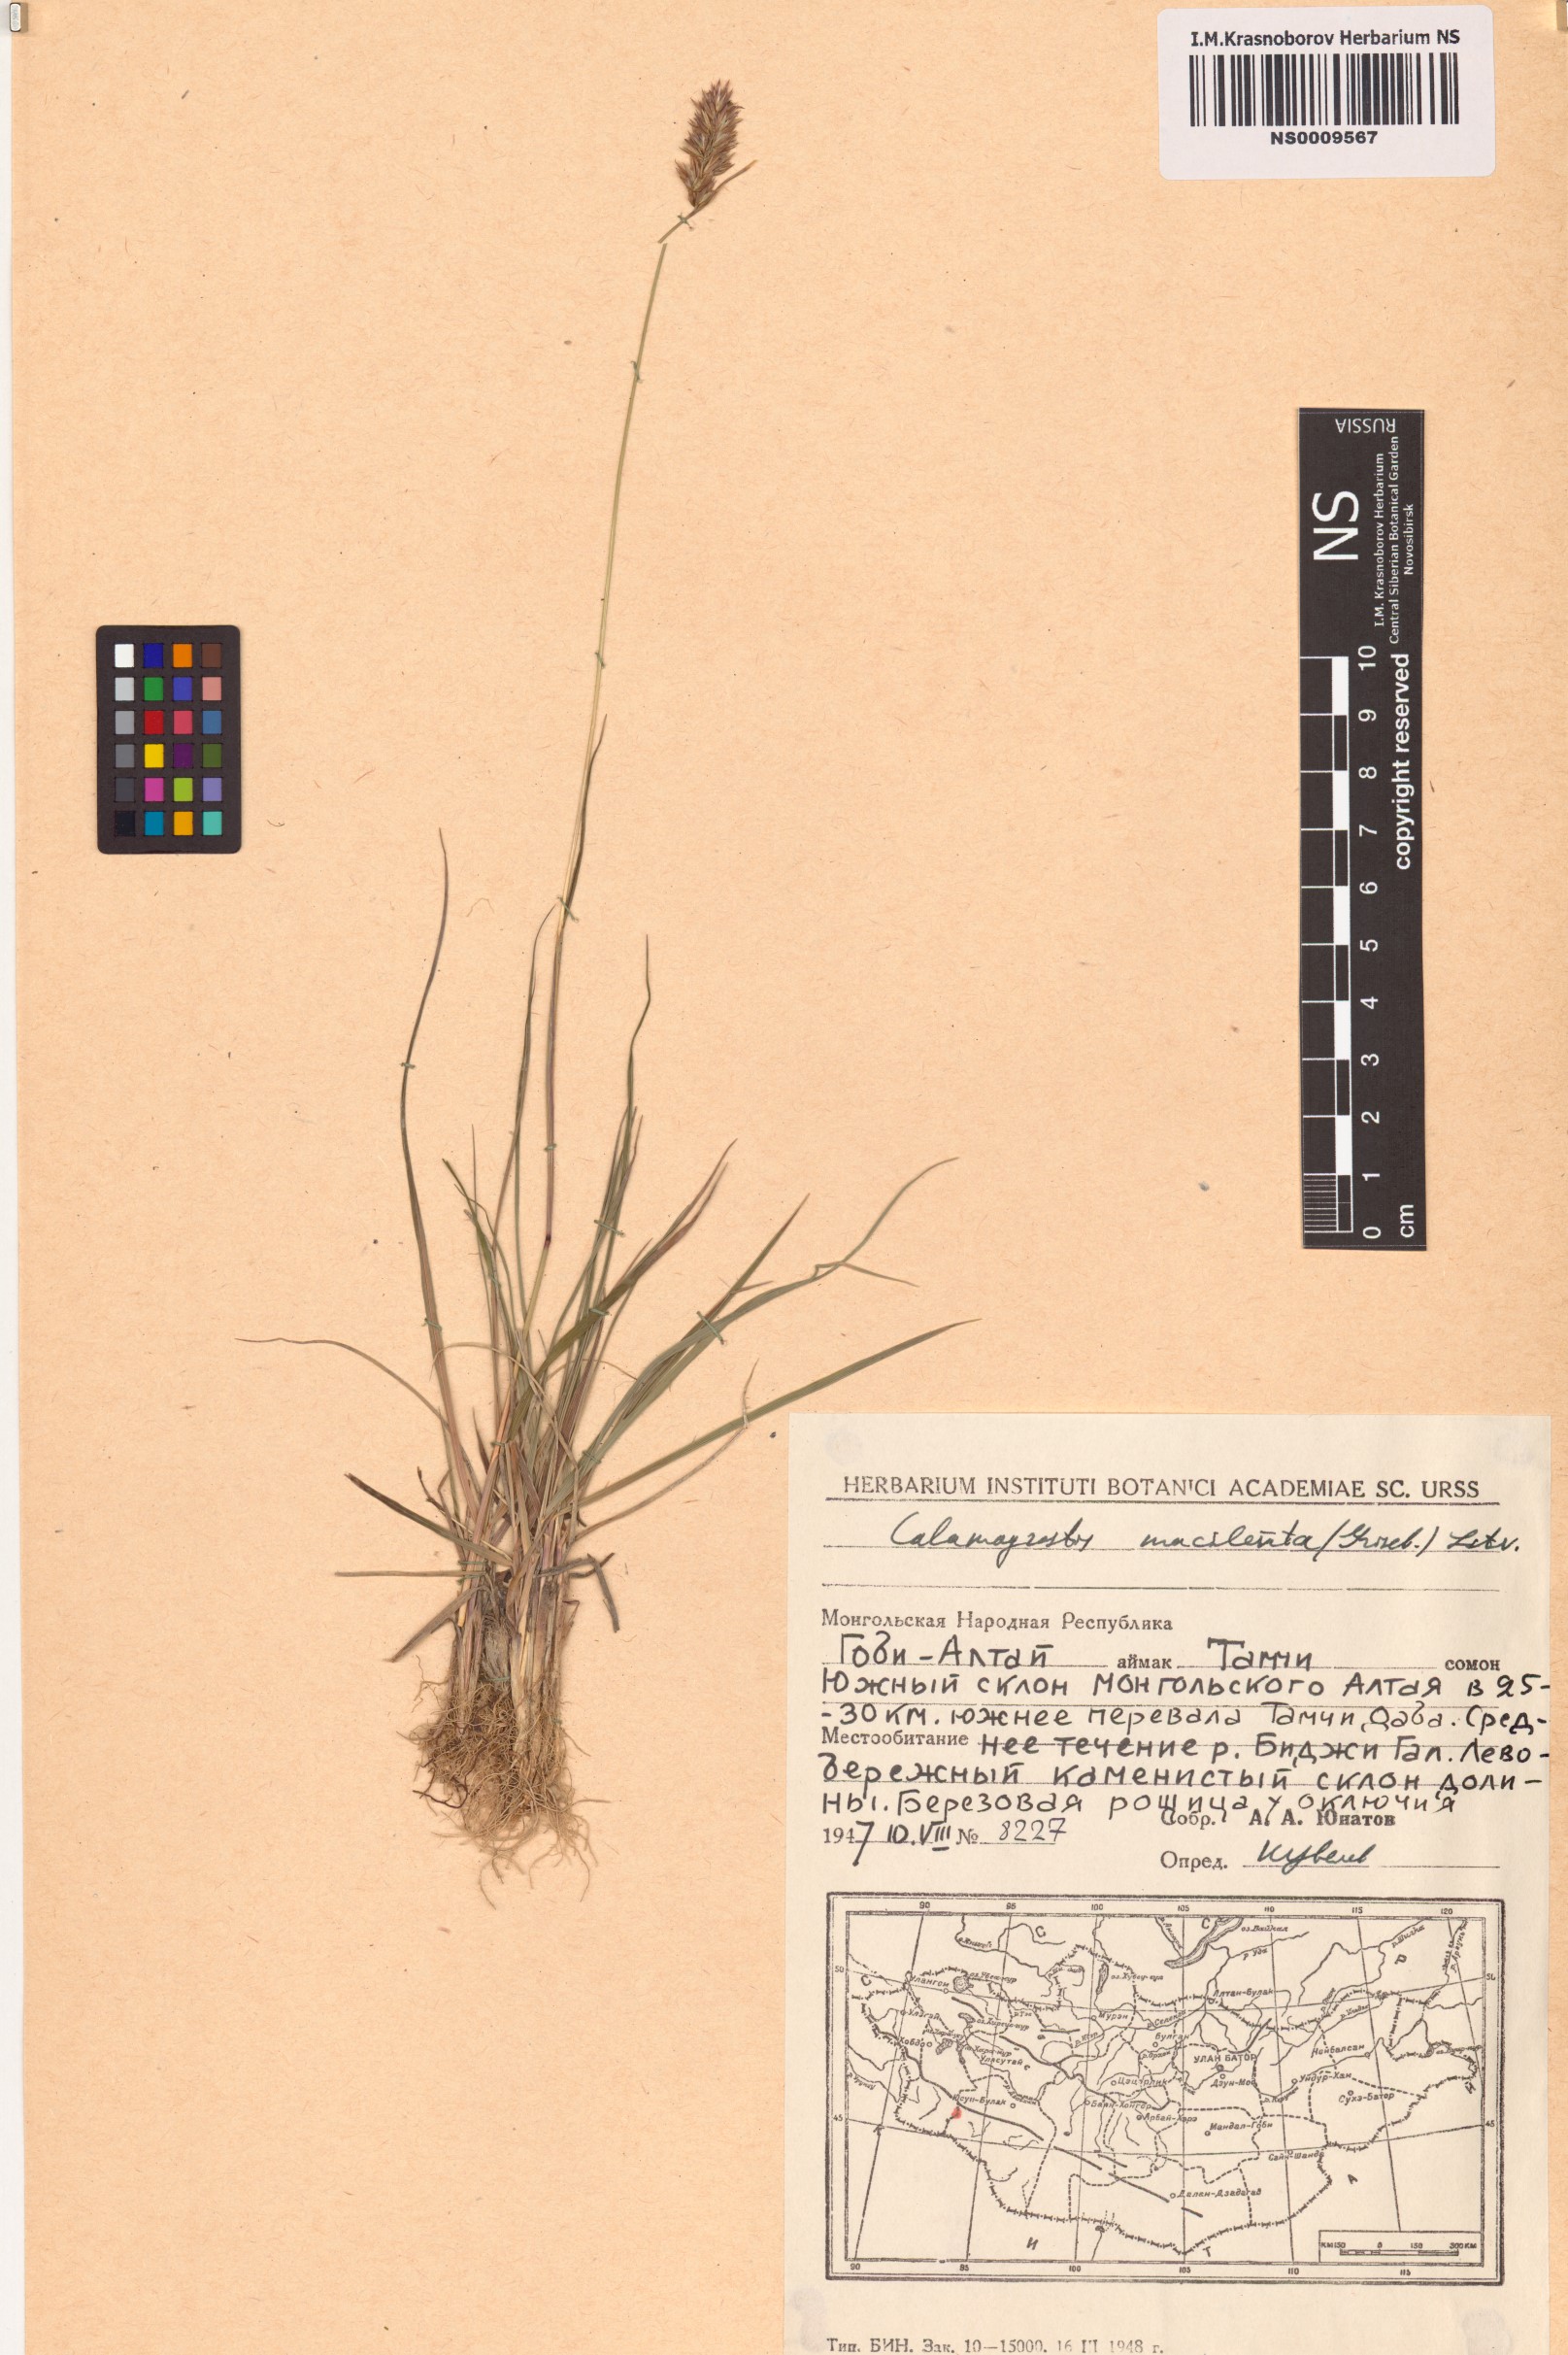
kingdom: Plantae
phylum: Tracheophyta
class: Liliopsida
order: Poales
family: Poaceae
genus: Calamagrostis
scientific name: Calamagrostis macilenta
